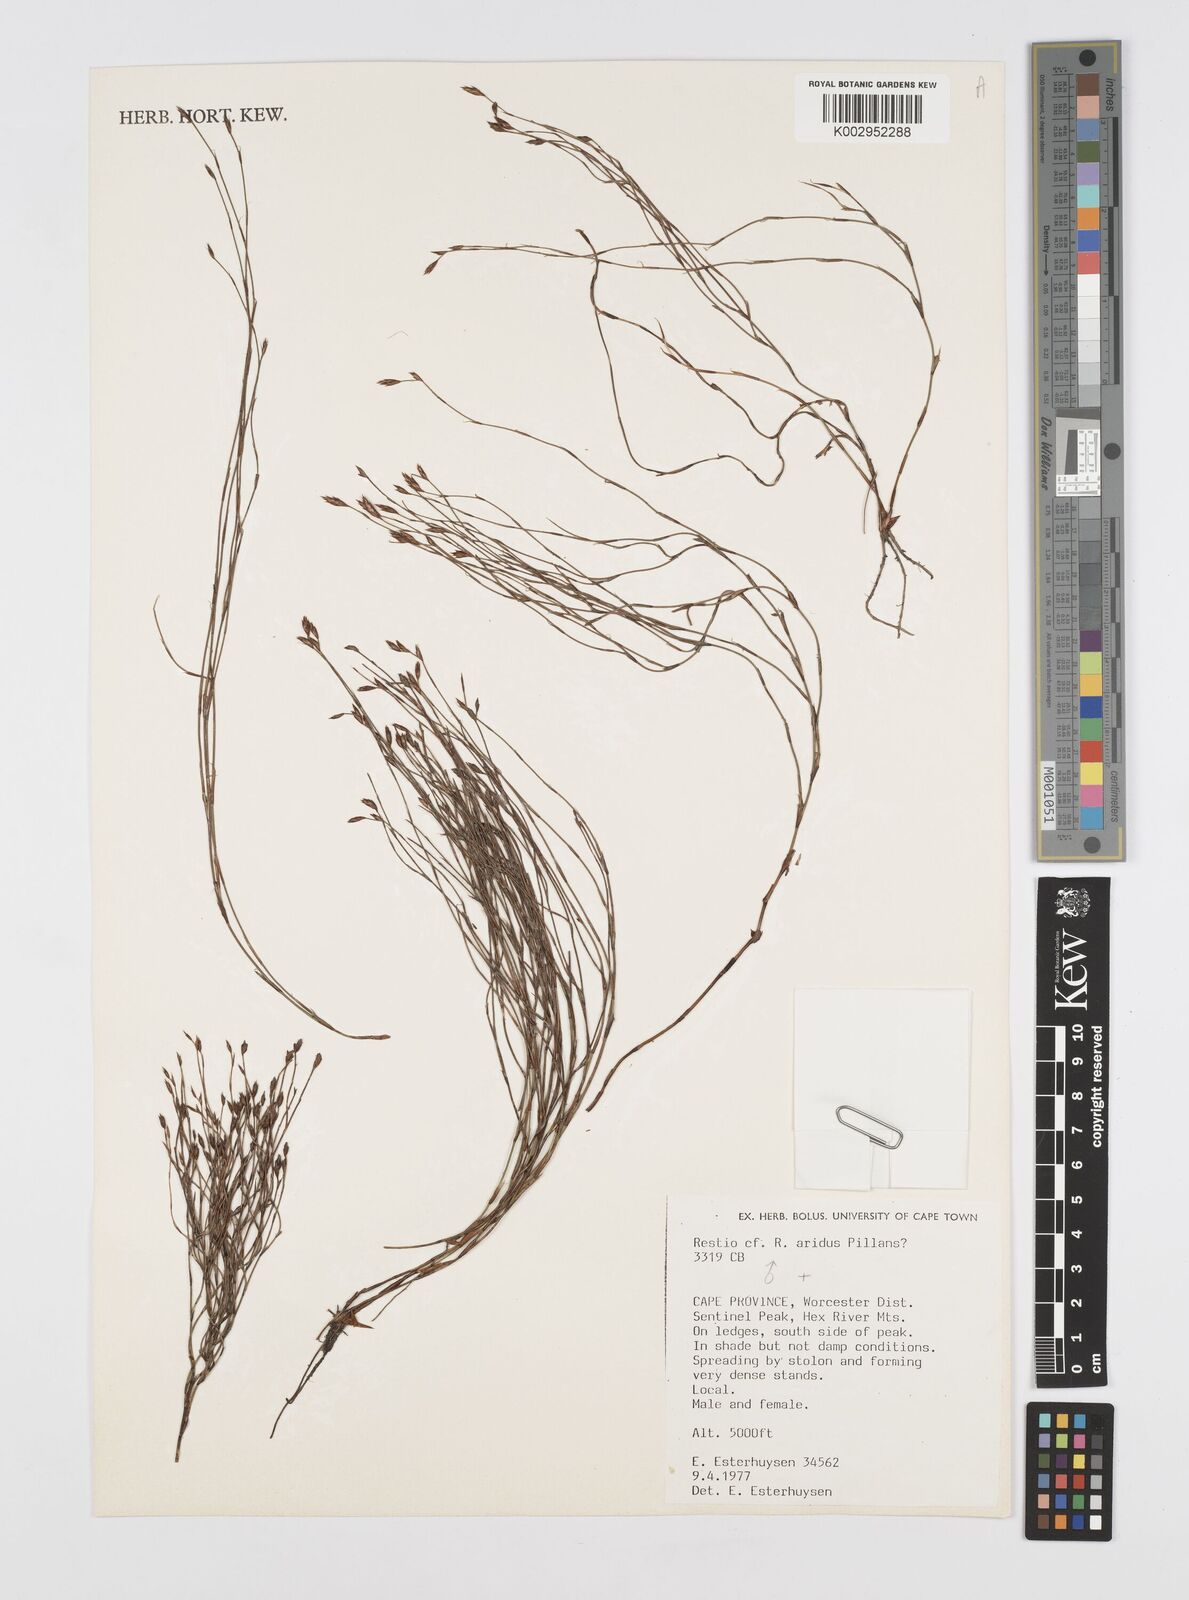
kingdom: Plantae
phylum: Tracheophyta
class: Liliopsida
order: Poales
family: Restionaceae
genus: Restio
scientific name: Restio aridus
